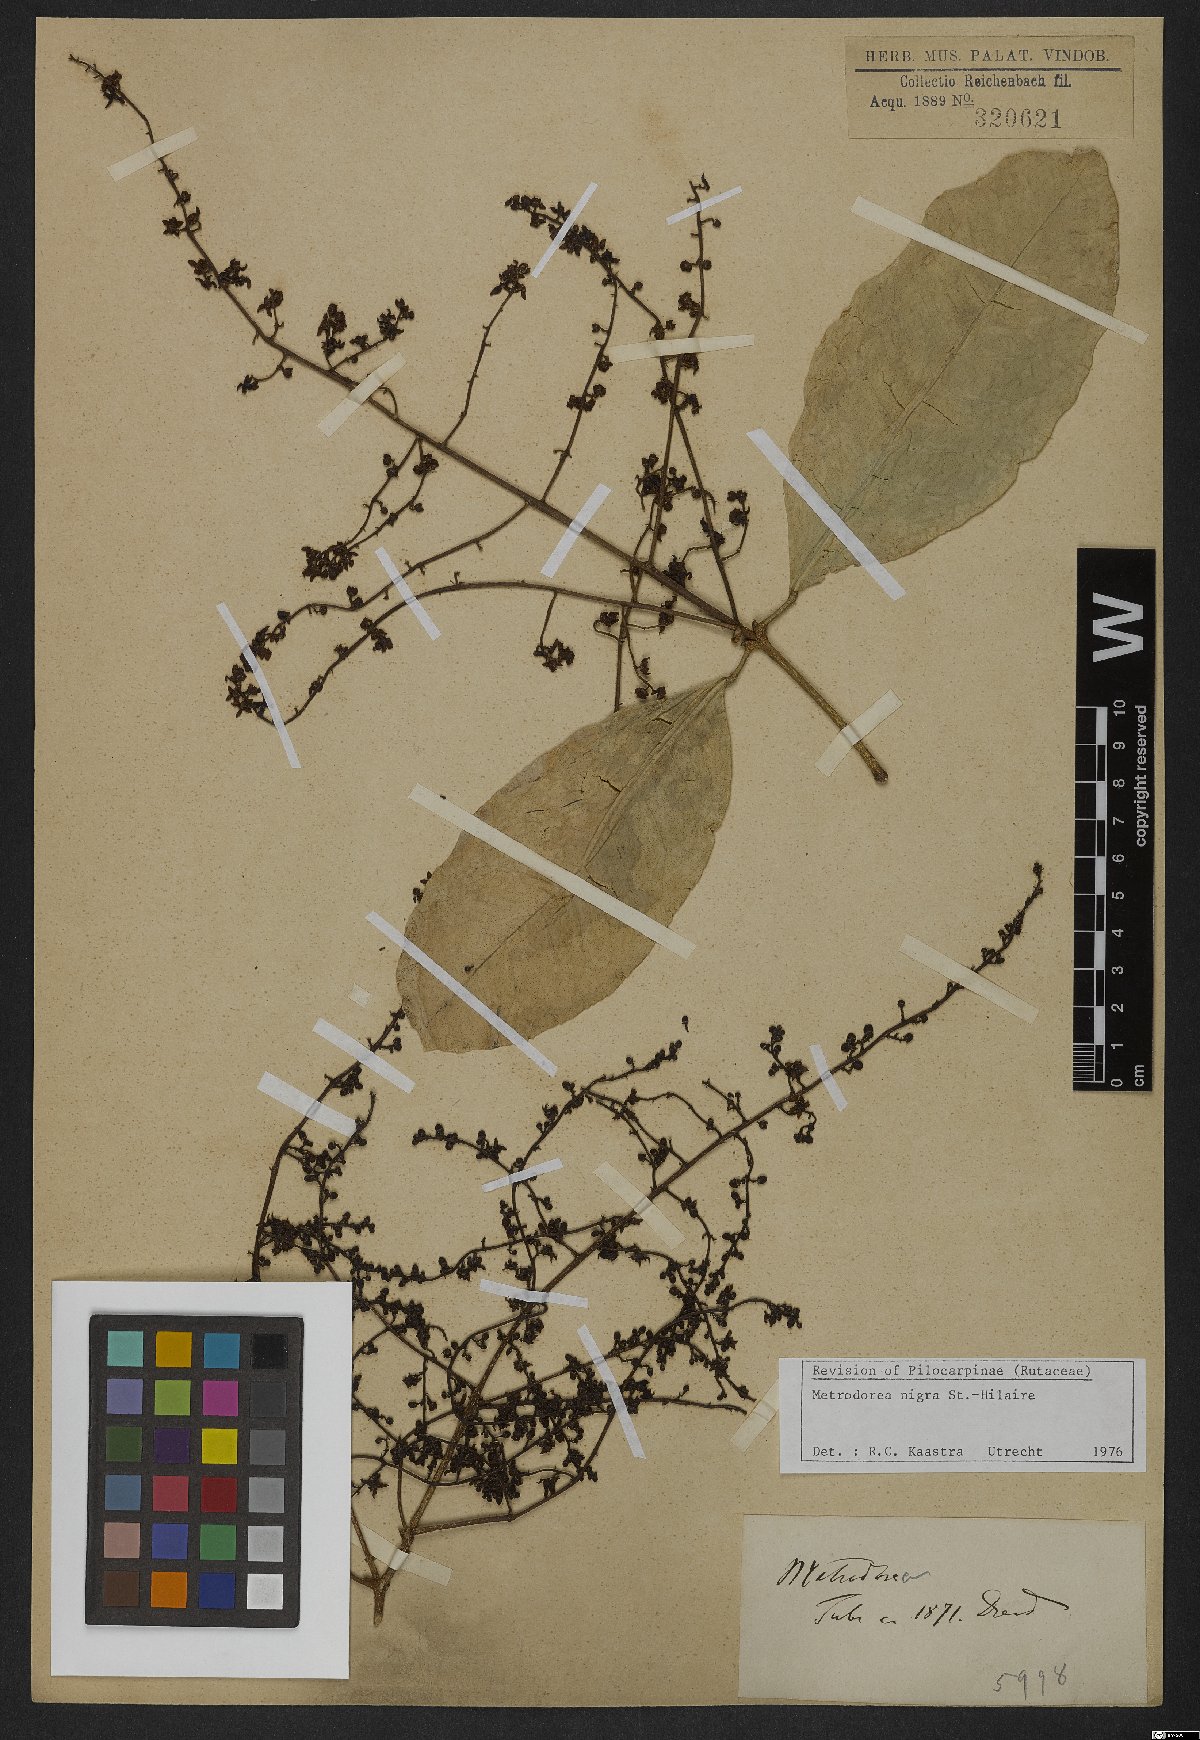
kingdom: Plantae
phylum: Tracheophyta
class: Magnoliopsida
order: Sapindales
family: Rutaceae
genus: Metrodorea
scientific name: Metrodorea nigra
